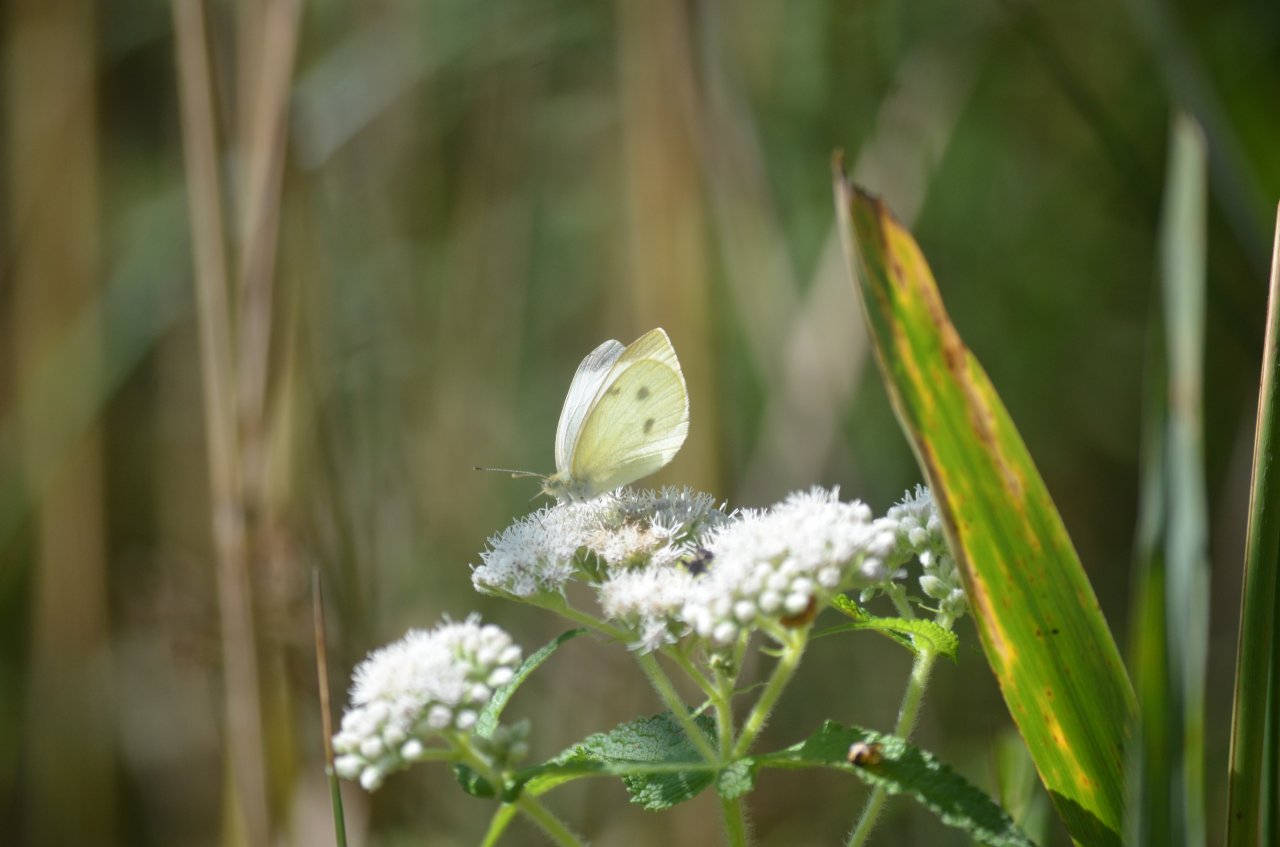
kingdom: Animalia
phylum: Arthropoda
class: Insecta
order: Lepidoptera
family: Pieridae
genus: Pieris
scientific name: Pieris rapae
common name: Cabbage White
